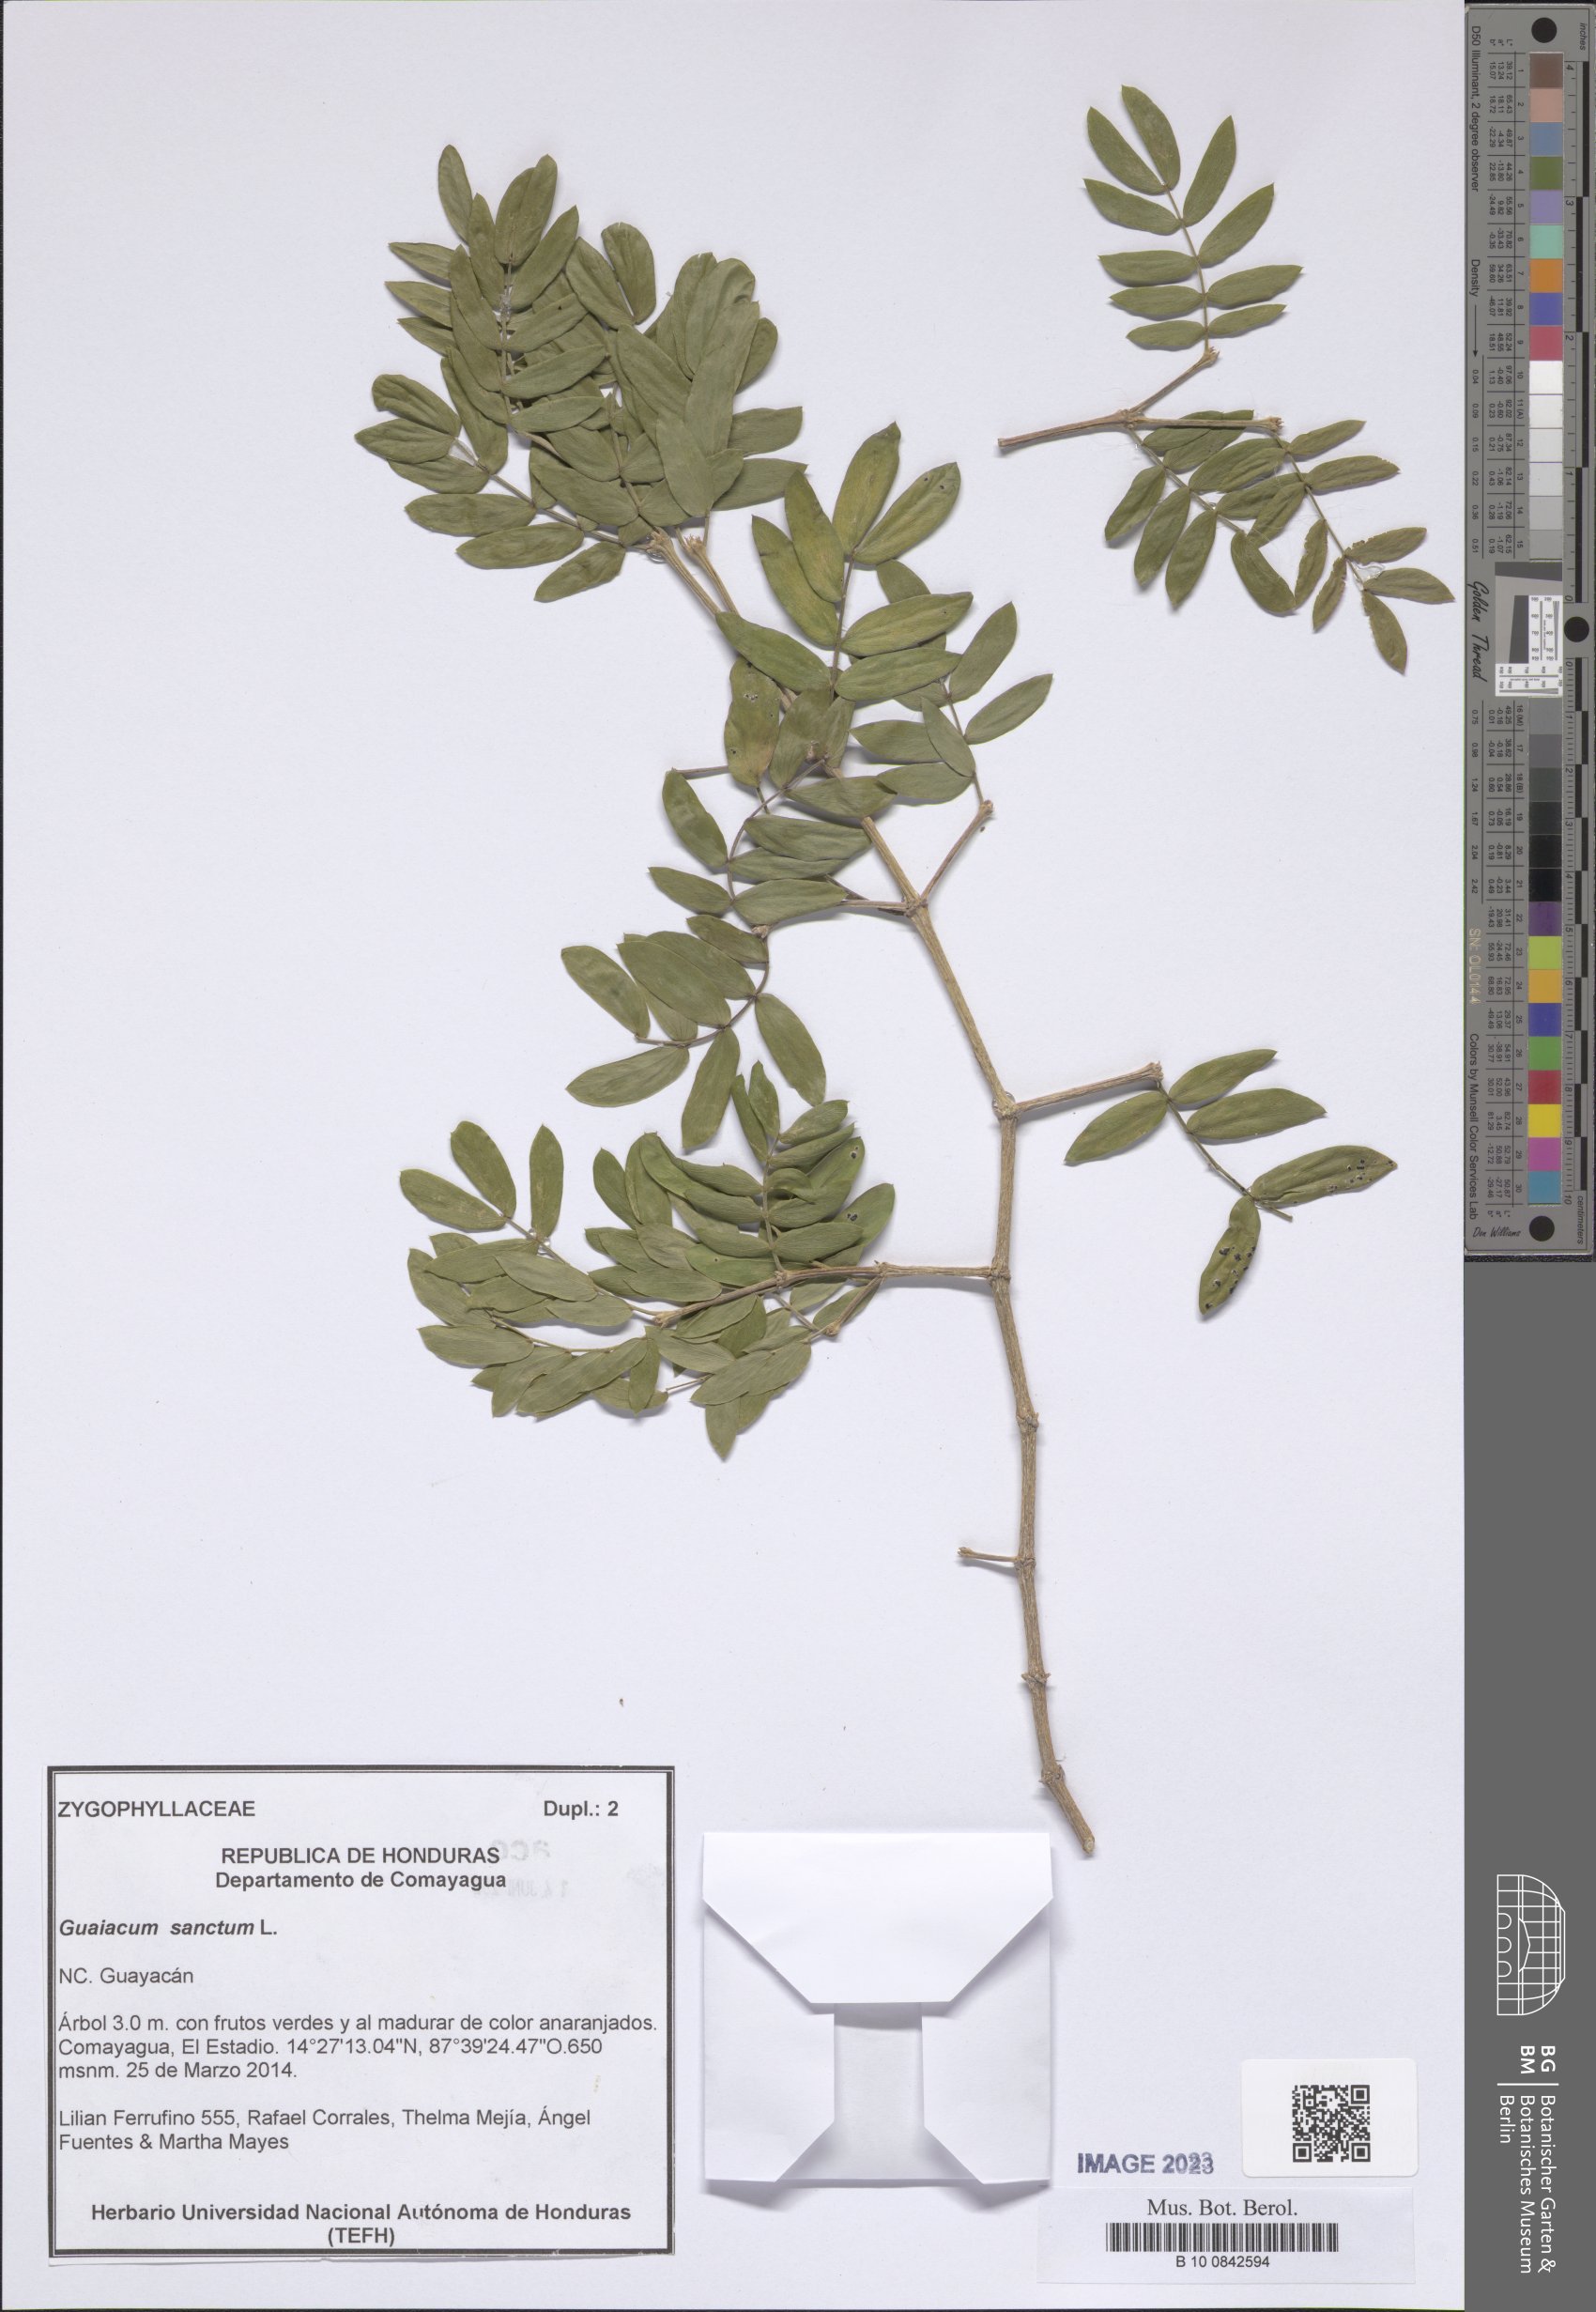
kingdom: Plantae
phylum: Tracheophyta
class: Magnoliopsida
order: Zygophyllales
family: Zygophyllaceae
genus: Guaiacum
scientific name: Guaiacum sanctum
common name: Holywood
